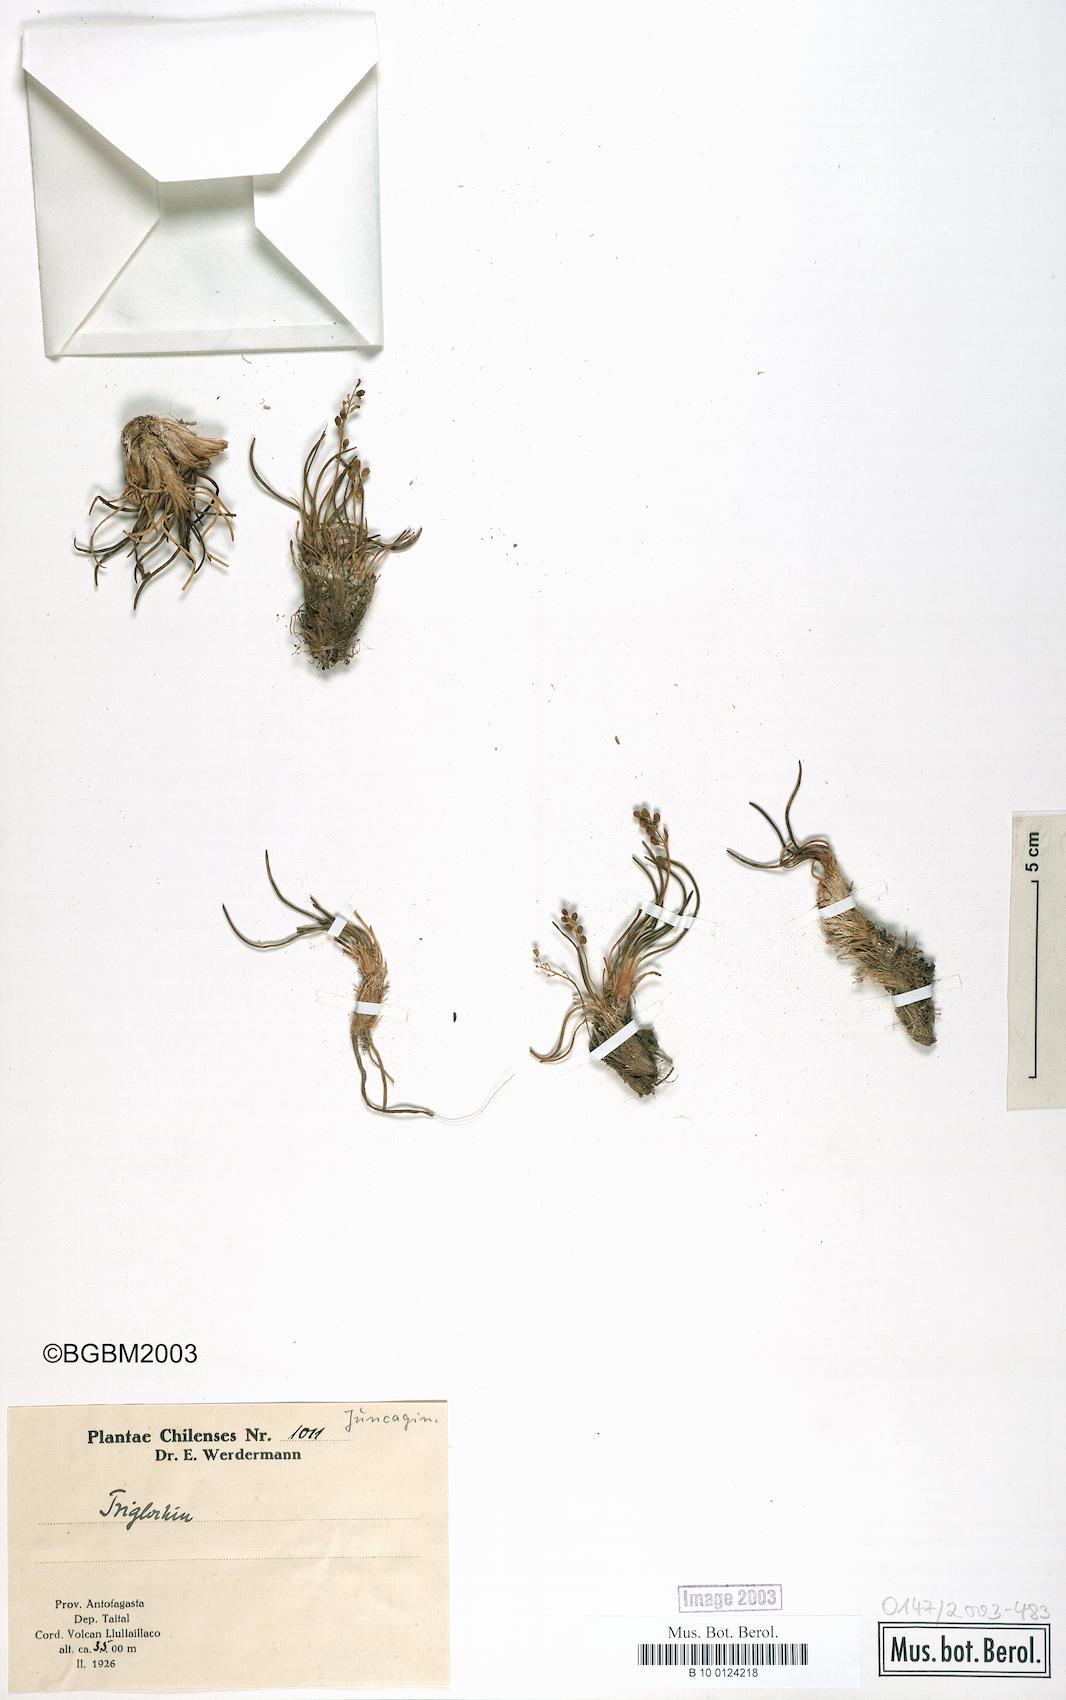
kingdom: Plantae
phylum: Tracheophyta
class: Liliopsida
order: Alismatales
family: Juncaginaceae
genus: Triglochin
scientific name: Triglochin maritima
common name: Sea arrowgrass
